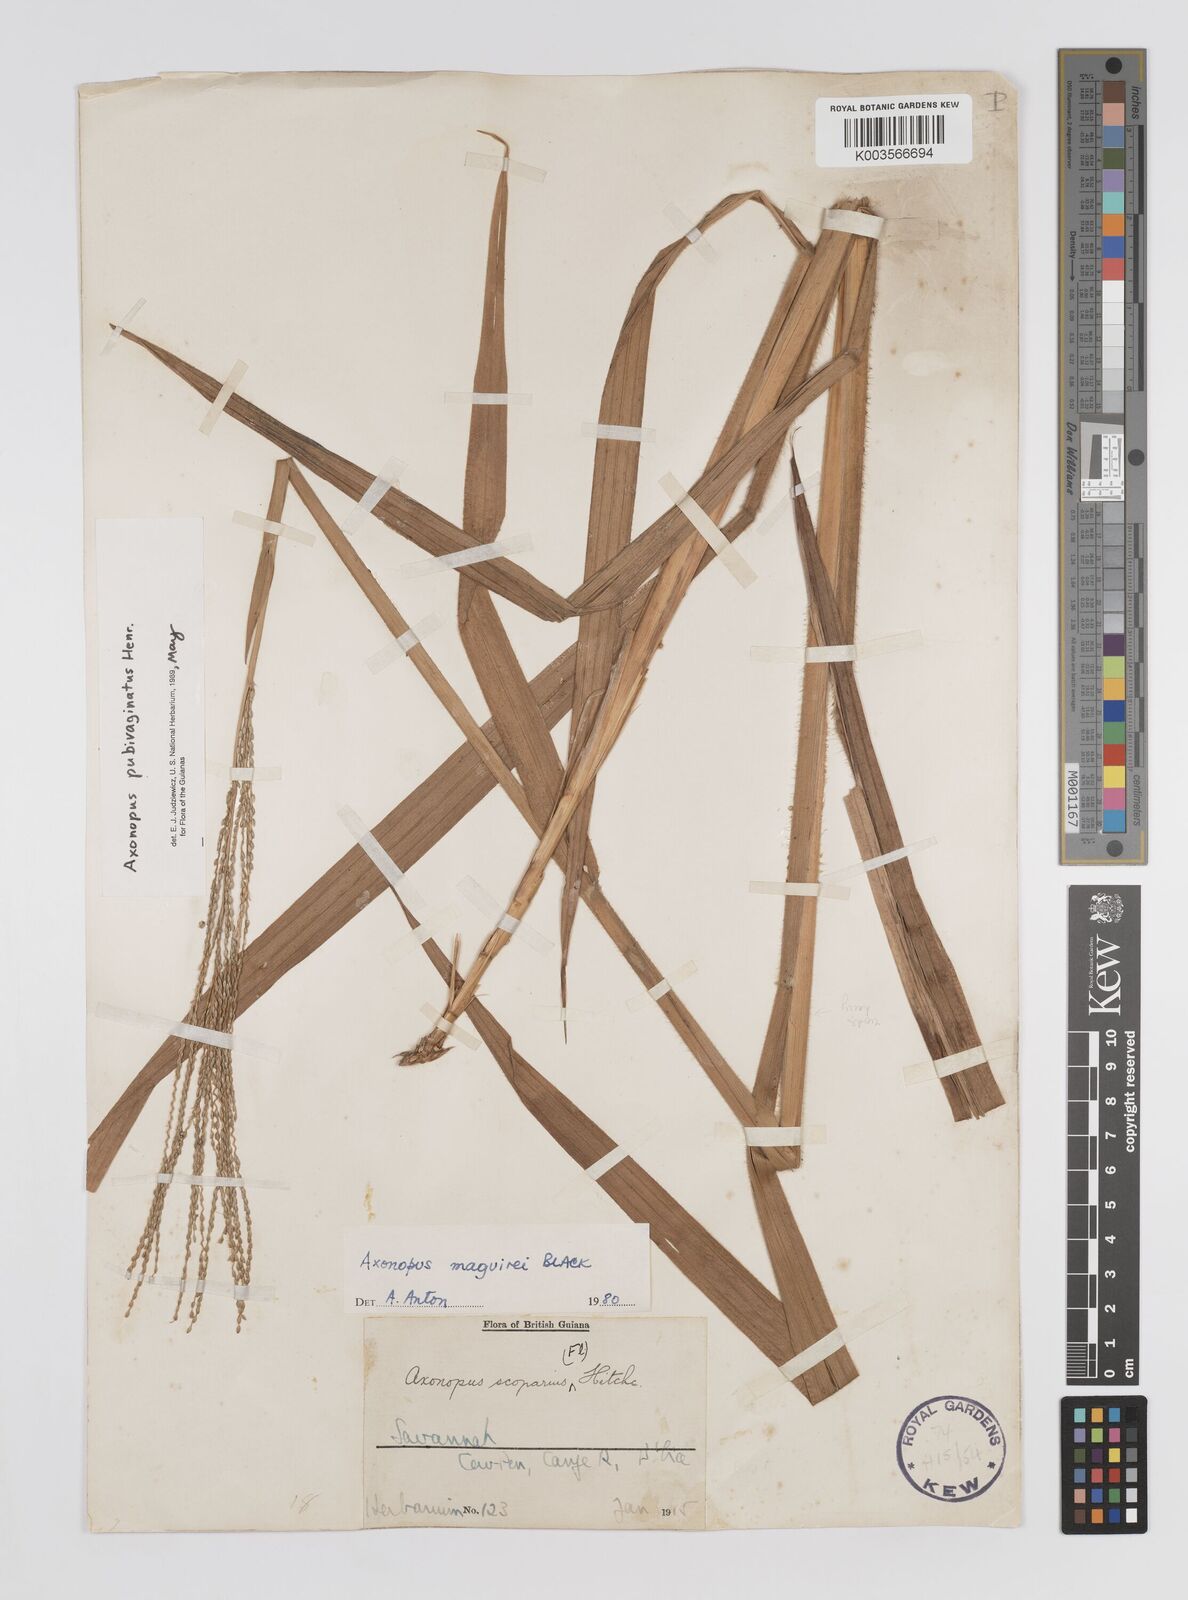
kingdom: Plantae
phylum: Tracheophyta
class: Liliopsida
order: Poales
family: Poaceae
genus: Axonopus
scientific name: Axonopus pubivaginatus
